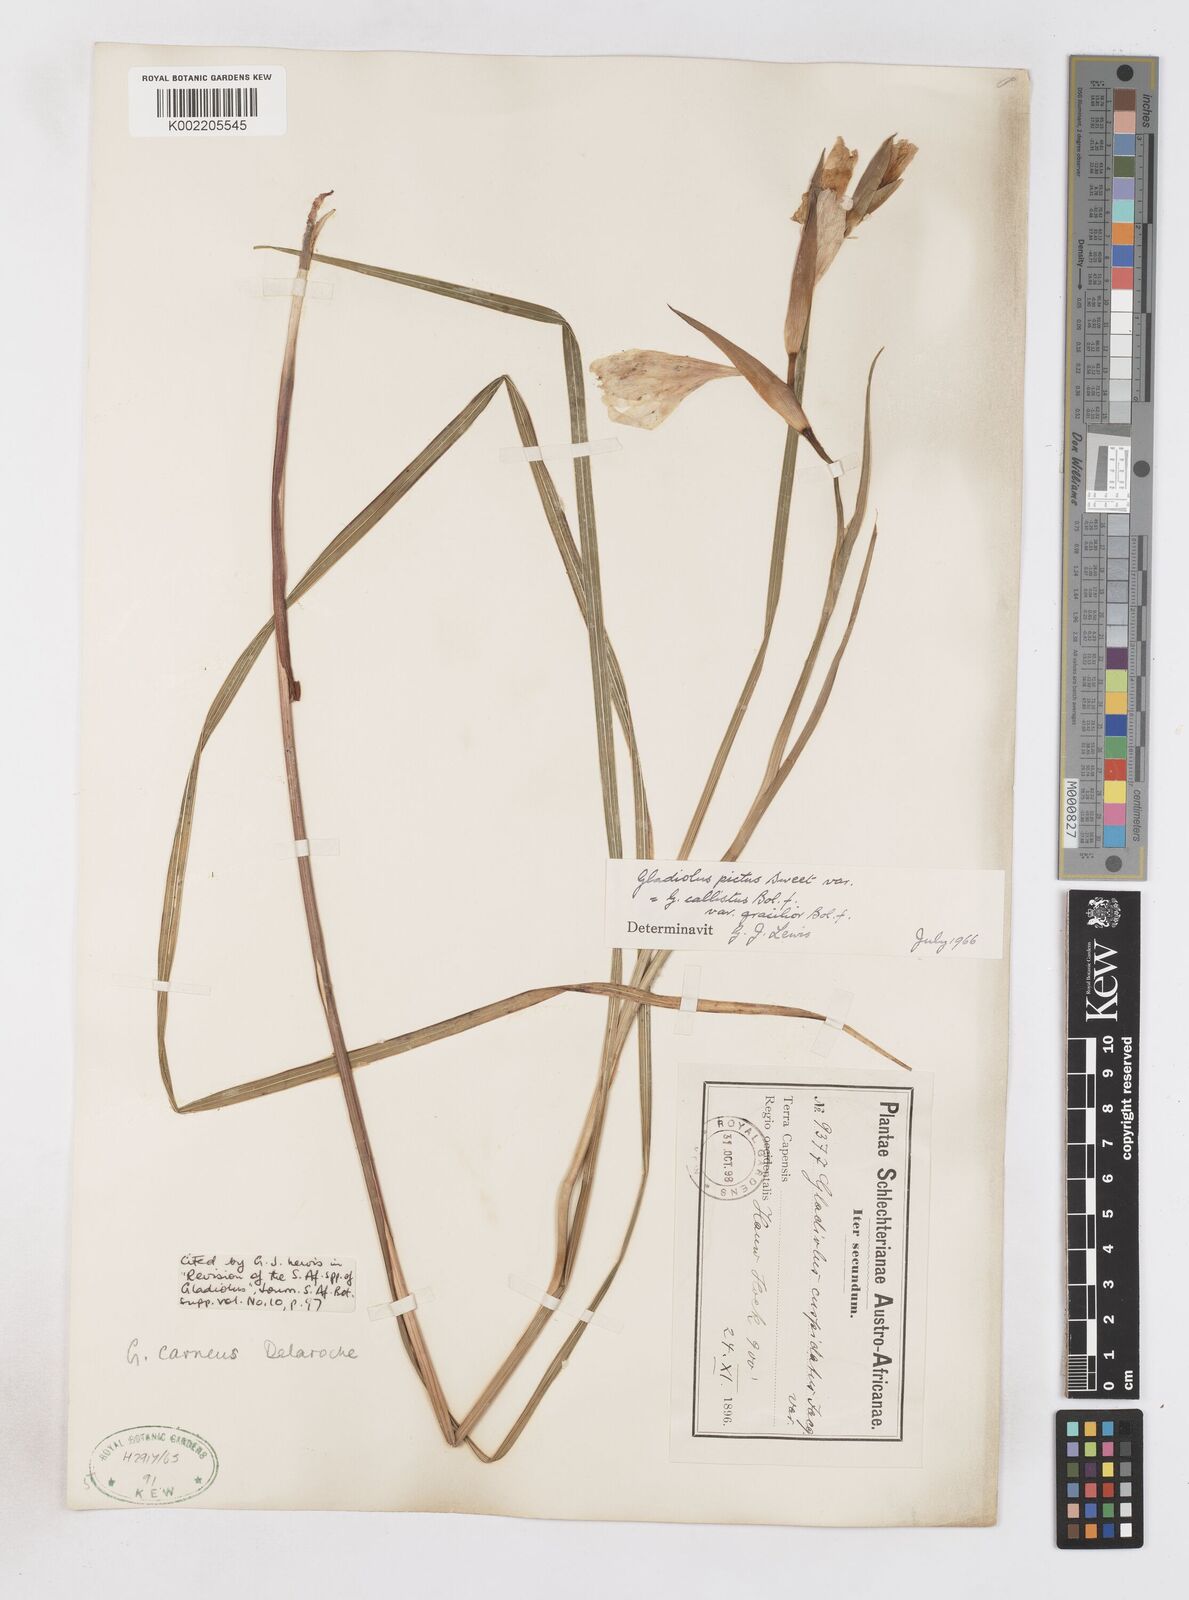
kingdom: Plantae
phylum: Tracheophyta
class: Liliopsida
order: Asparagales
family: Iridaceae
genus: Gladiolus
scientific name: Gladiolus carneus
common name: Painted-lady
